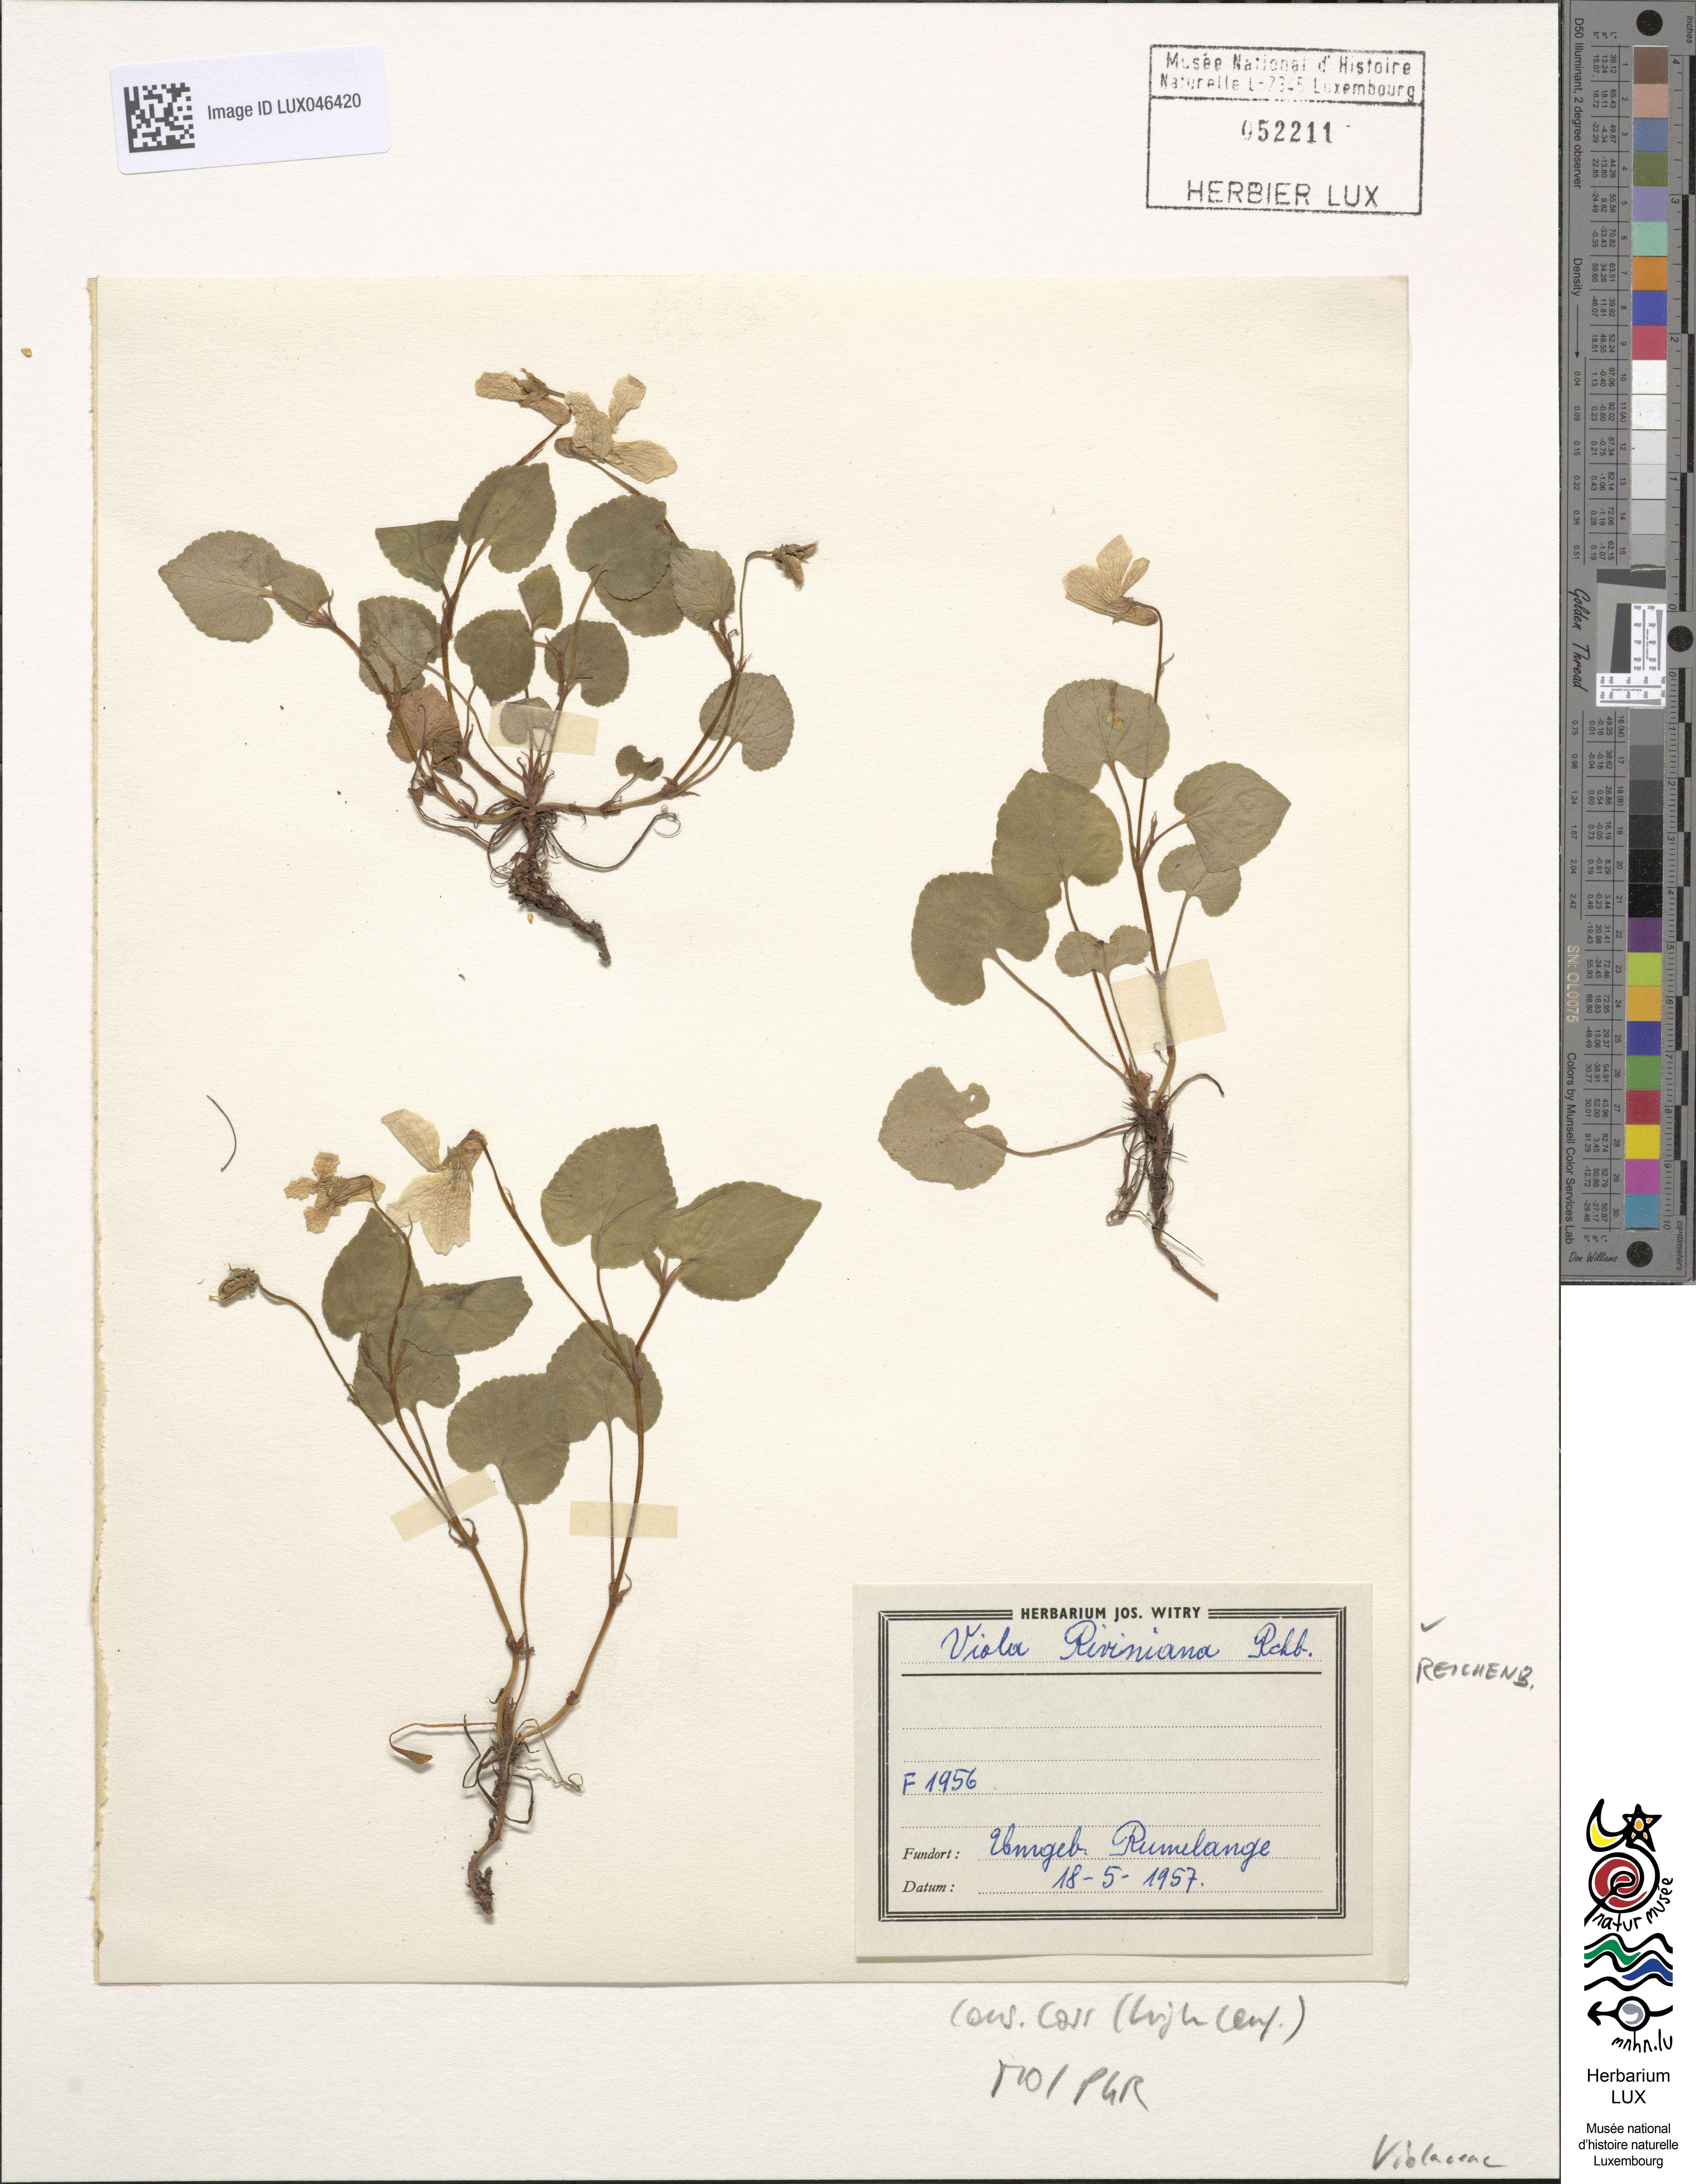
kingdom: Plantae
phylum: Tracheophyta
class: Magnoliopsida
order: Malpighiales
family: Violaceae
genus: Viola
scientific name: Viola riviniana
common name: Common dog-violet
